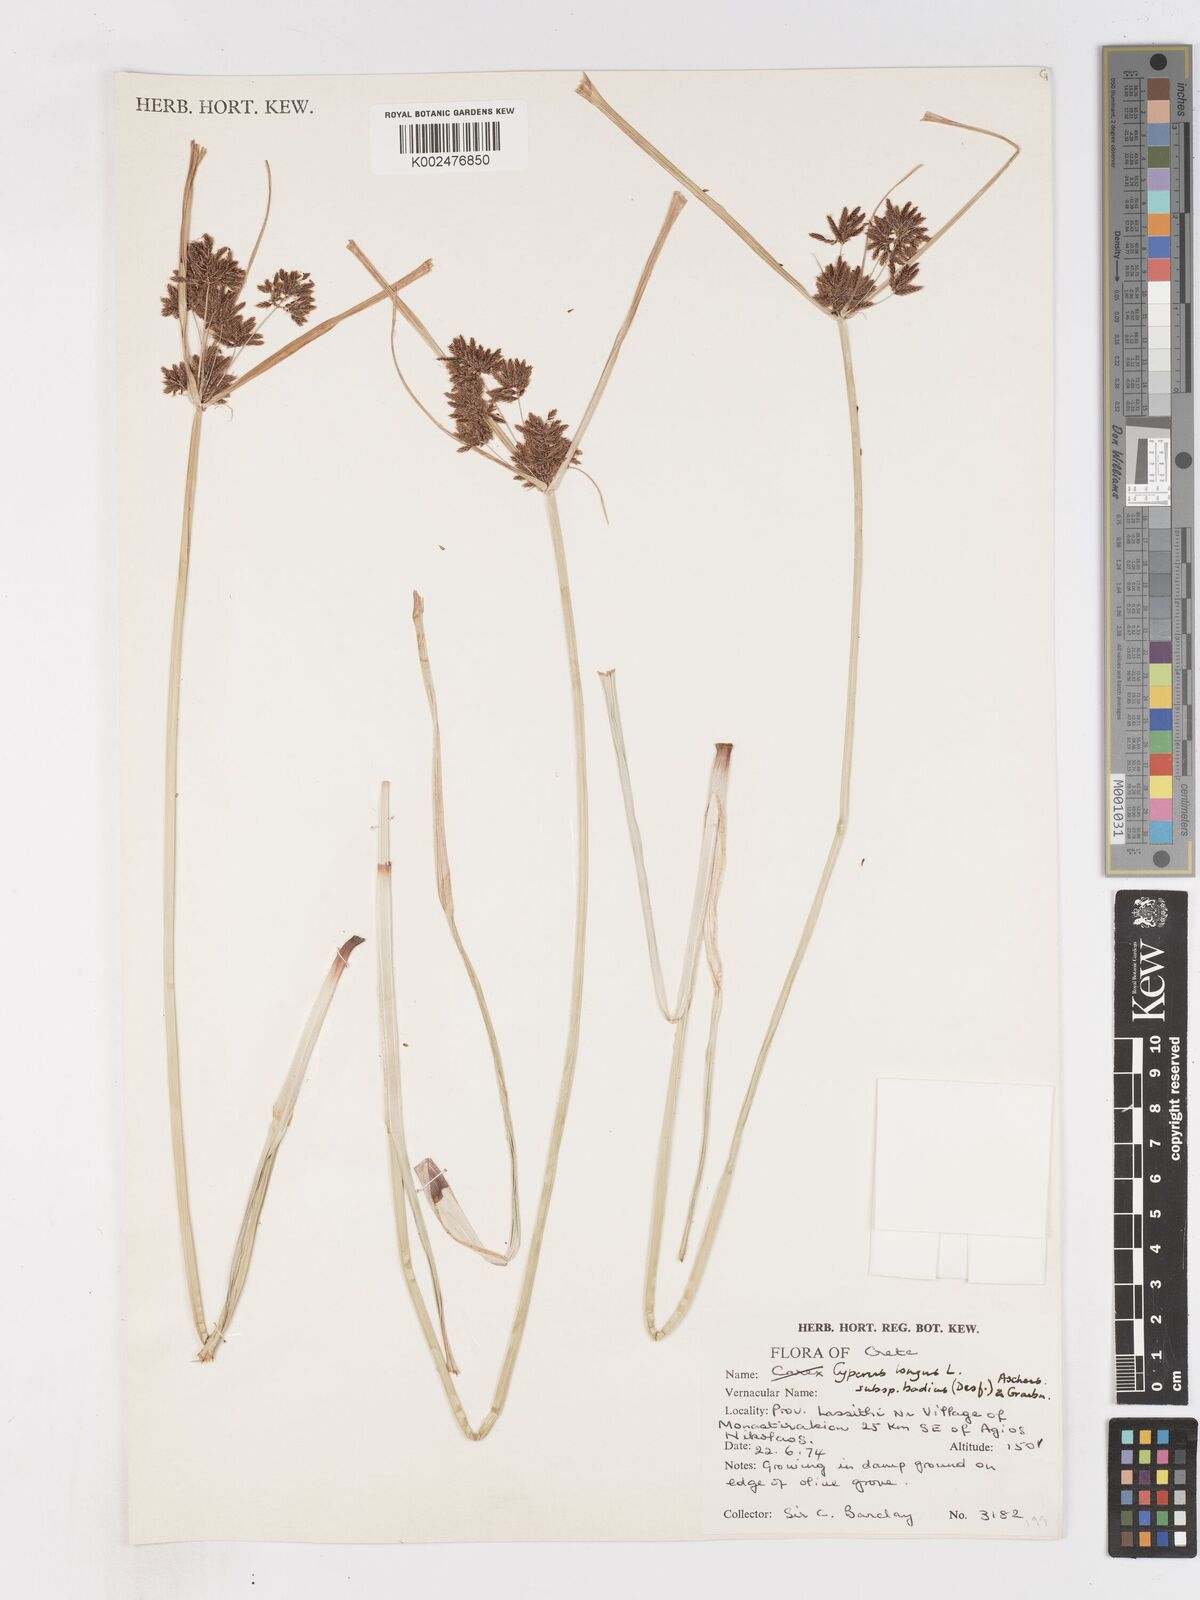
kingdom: Plantae
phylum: Tracheophyta
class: Liliopsida
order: Poales
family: Cyperaceae
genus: Cyperus
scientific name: Cyperus longus
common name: Galingale
